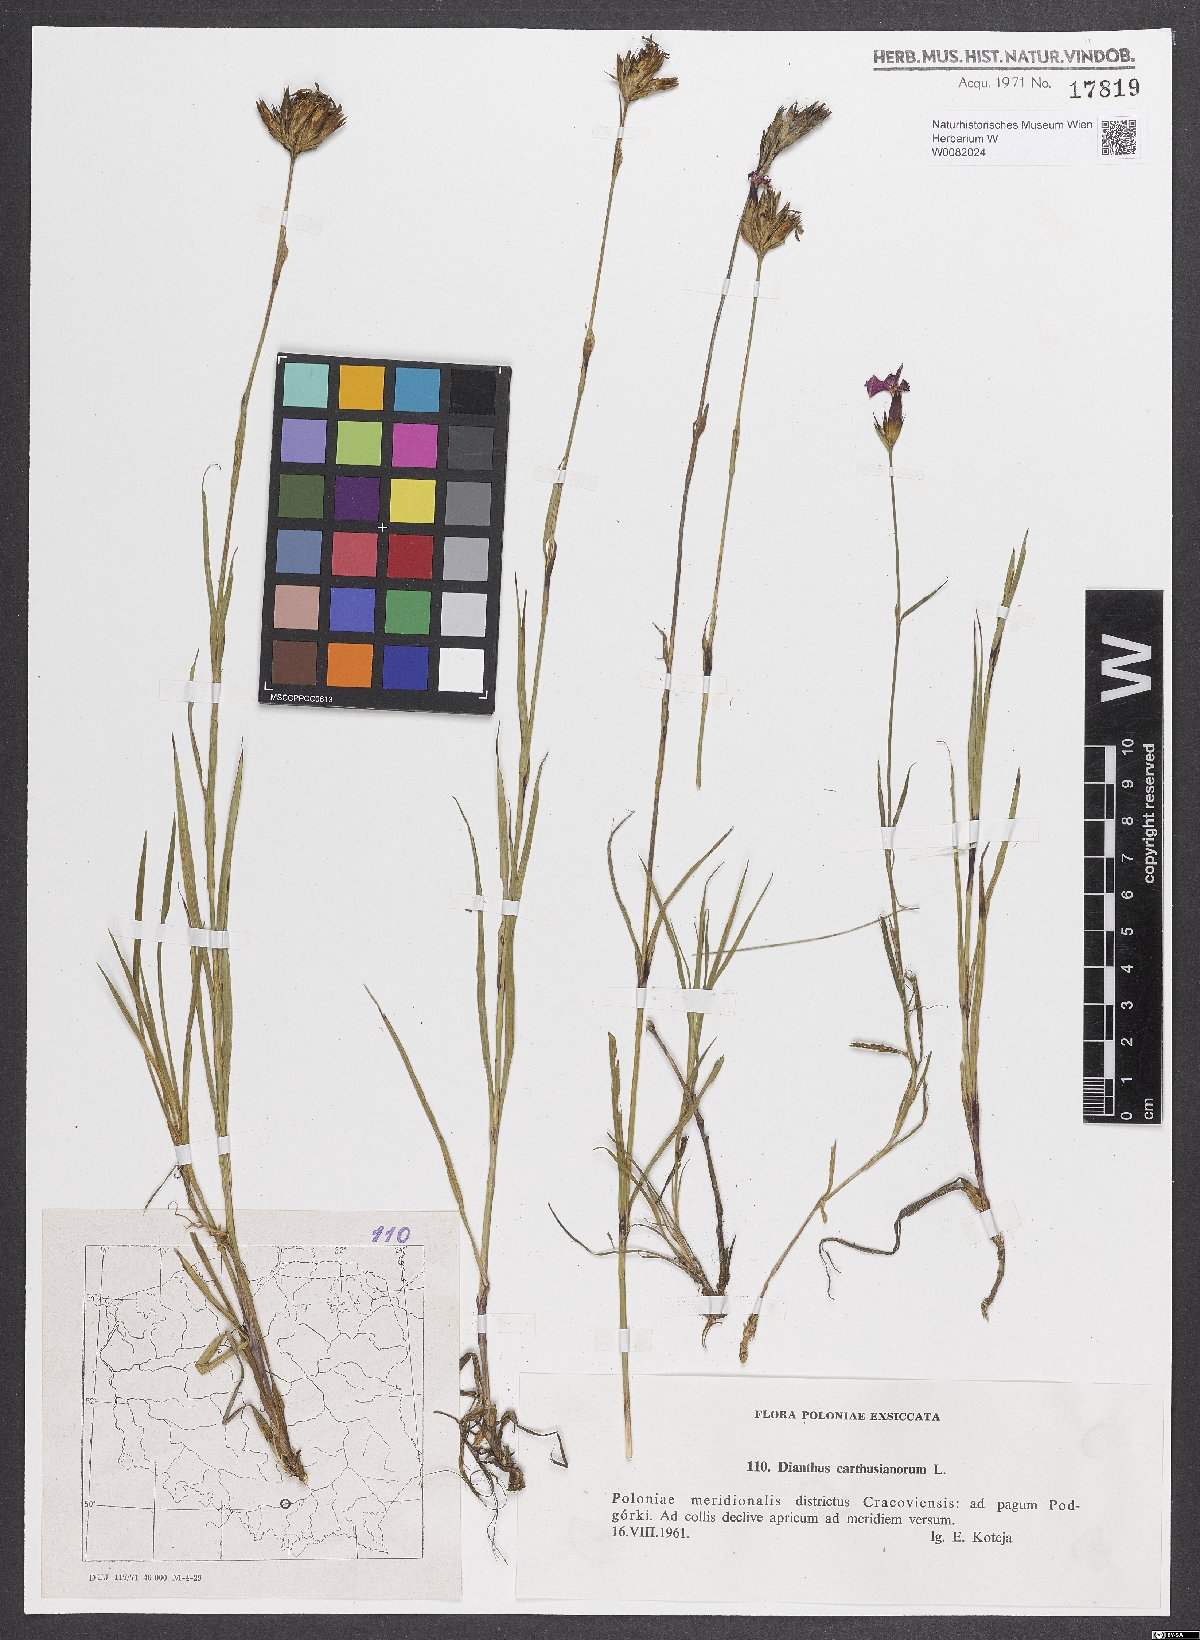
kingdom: Plantae
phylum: Tracheophyta
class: Magnoliopsida
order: Caryophyllales
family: Caryophyllaceae
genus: Dianthus
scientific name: Dianthus carthusianorum
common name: Carthusian pink
